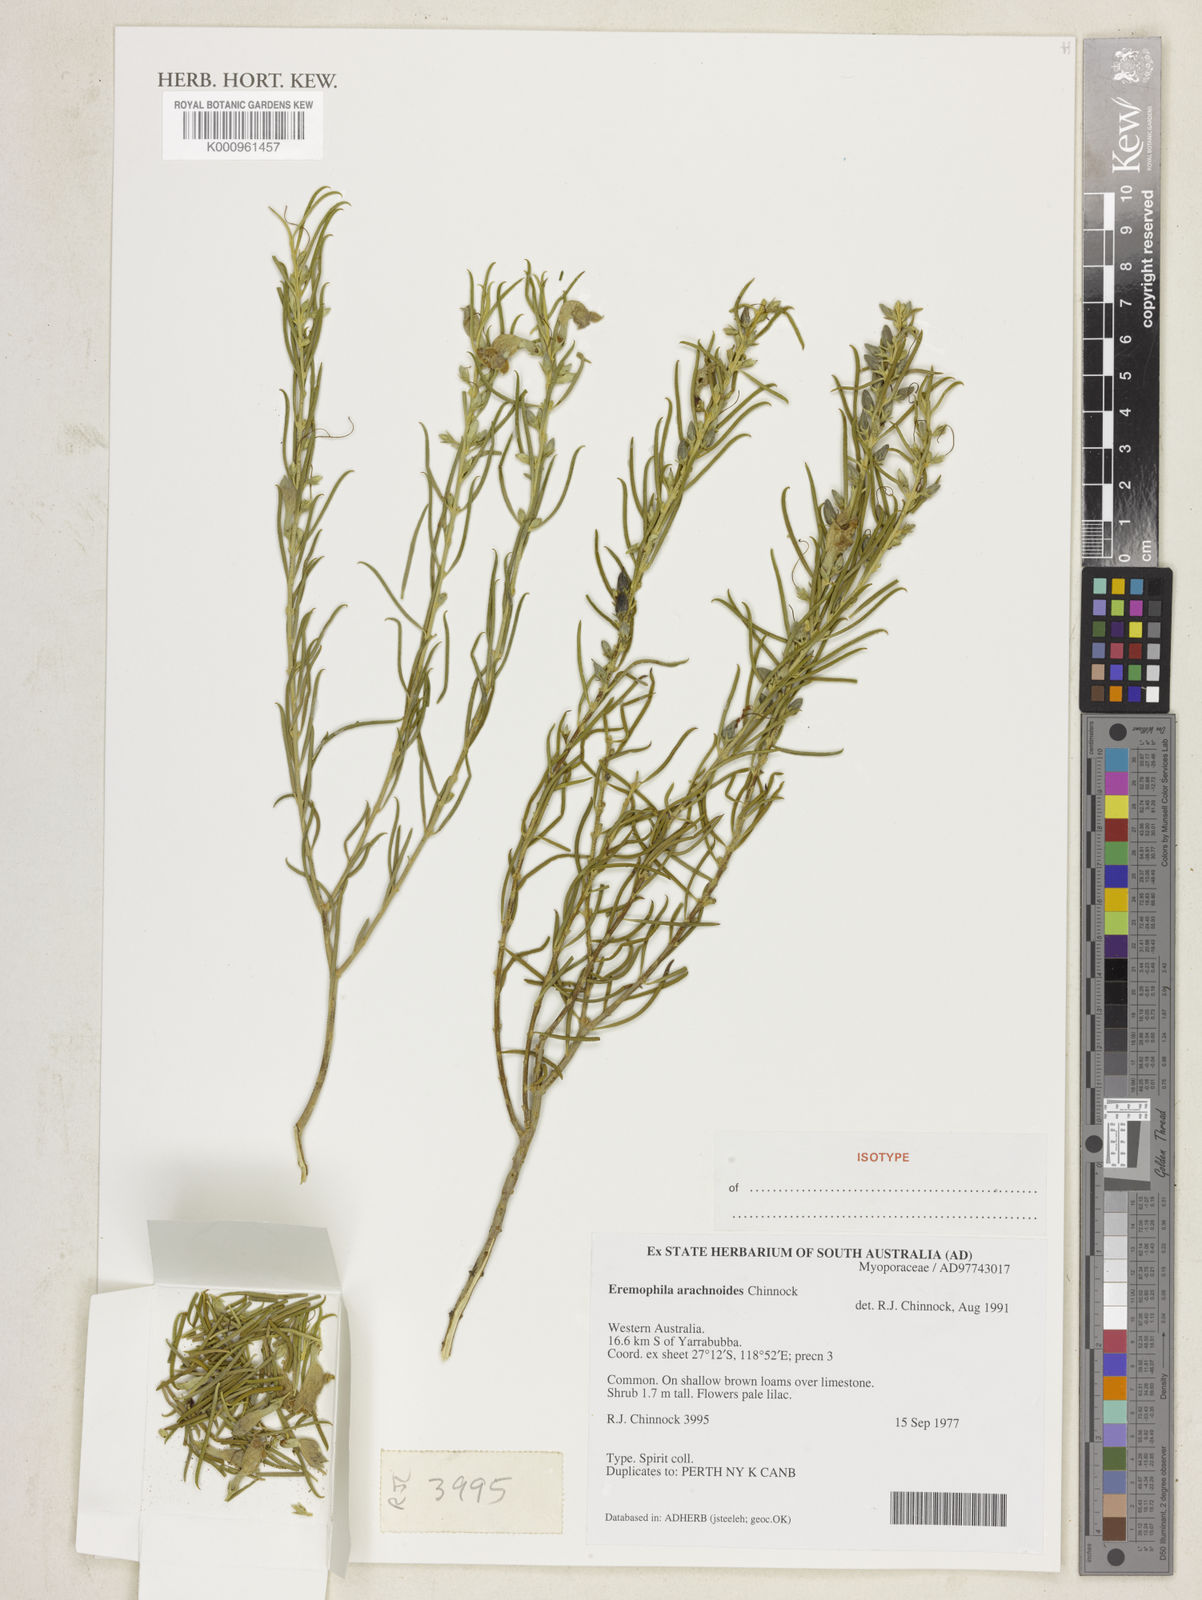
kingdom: Plantae
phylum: Tracheophyta
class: Magnoliopsida
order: Lamiales
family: Scrophulariaceae
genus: Eremophila
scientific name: Eremophila arachnoides
